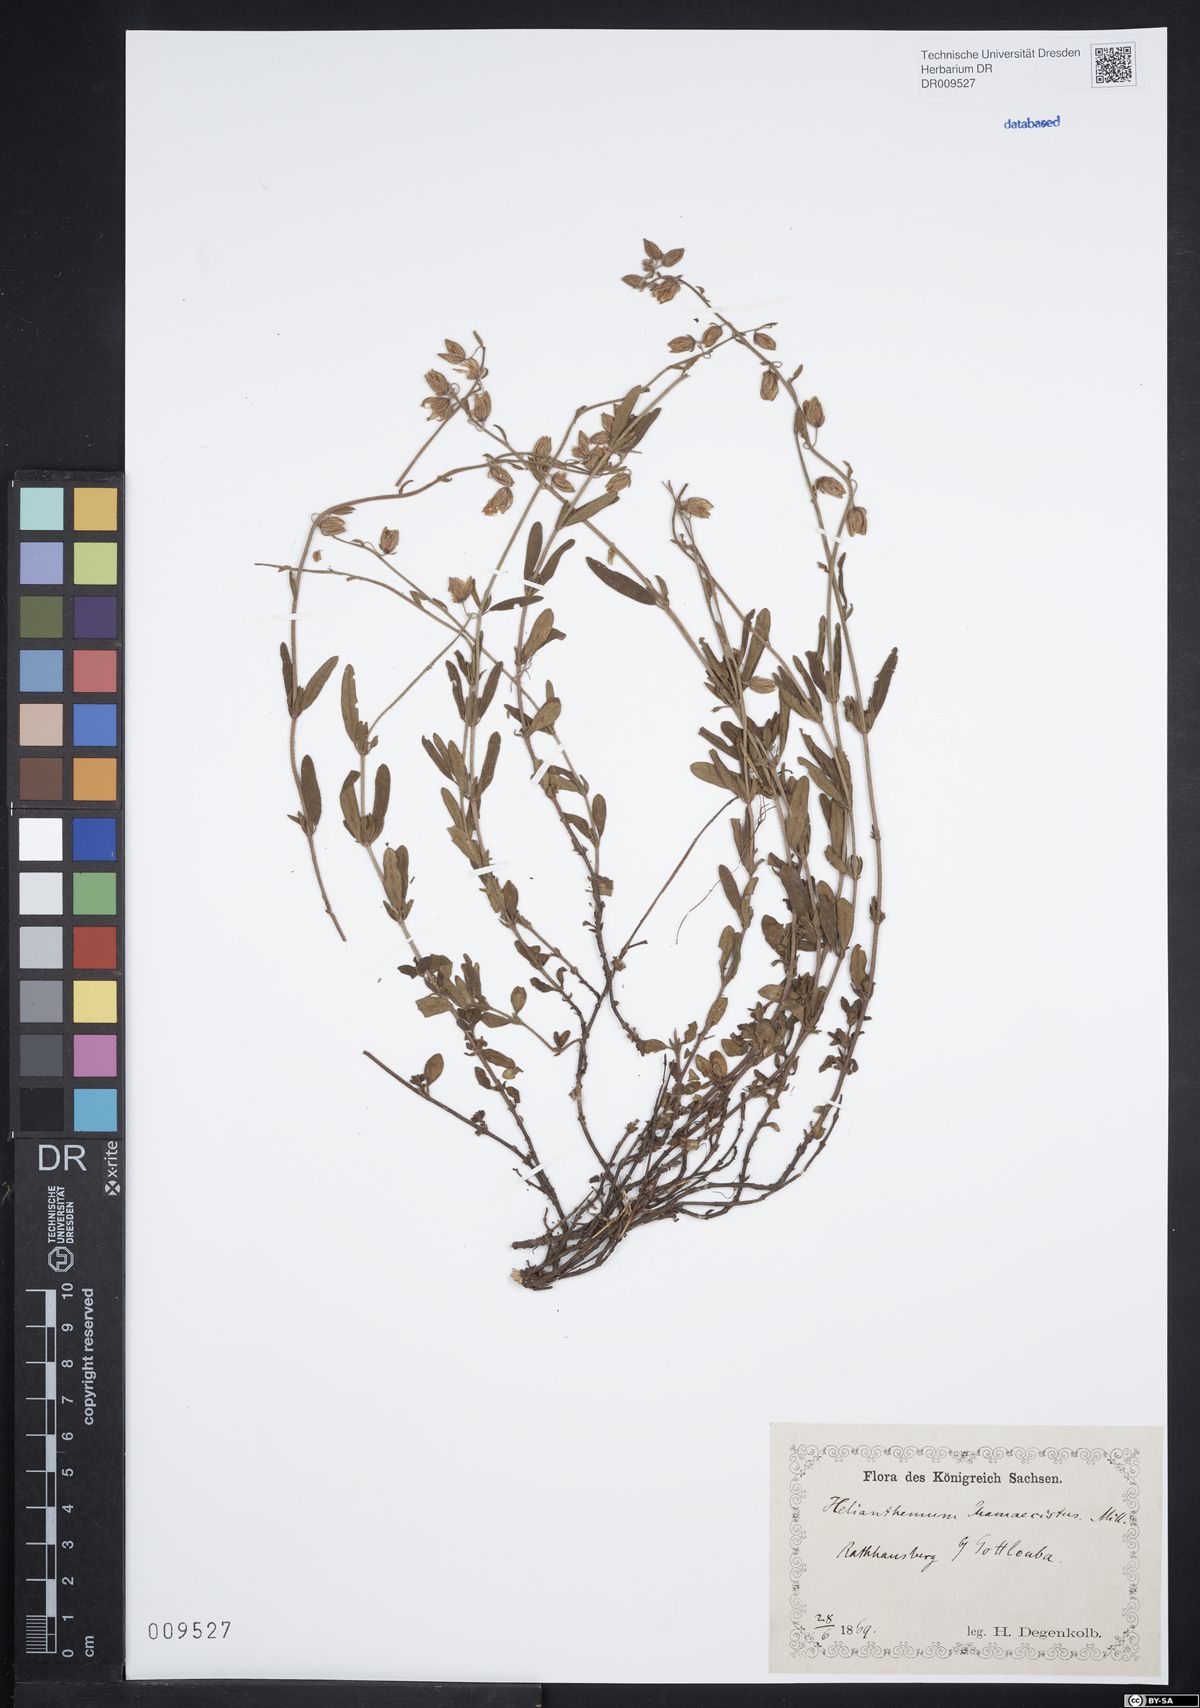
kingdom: Plantae
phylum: Tracheophyta
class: Magnoliopsida
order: Malvales
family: Cistaceae
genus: Helianthemum
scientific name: Helianthemum nummularium
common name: Common rock-rose
